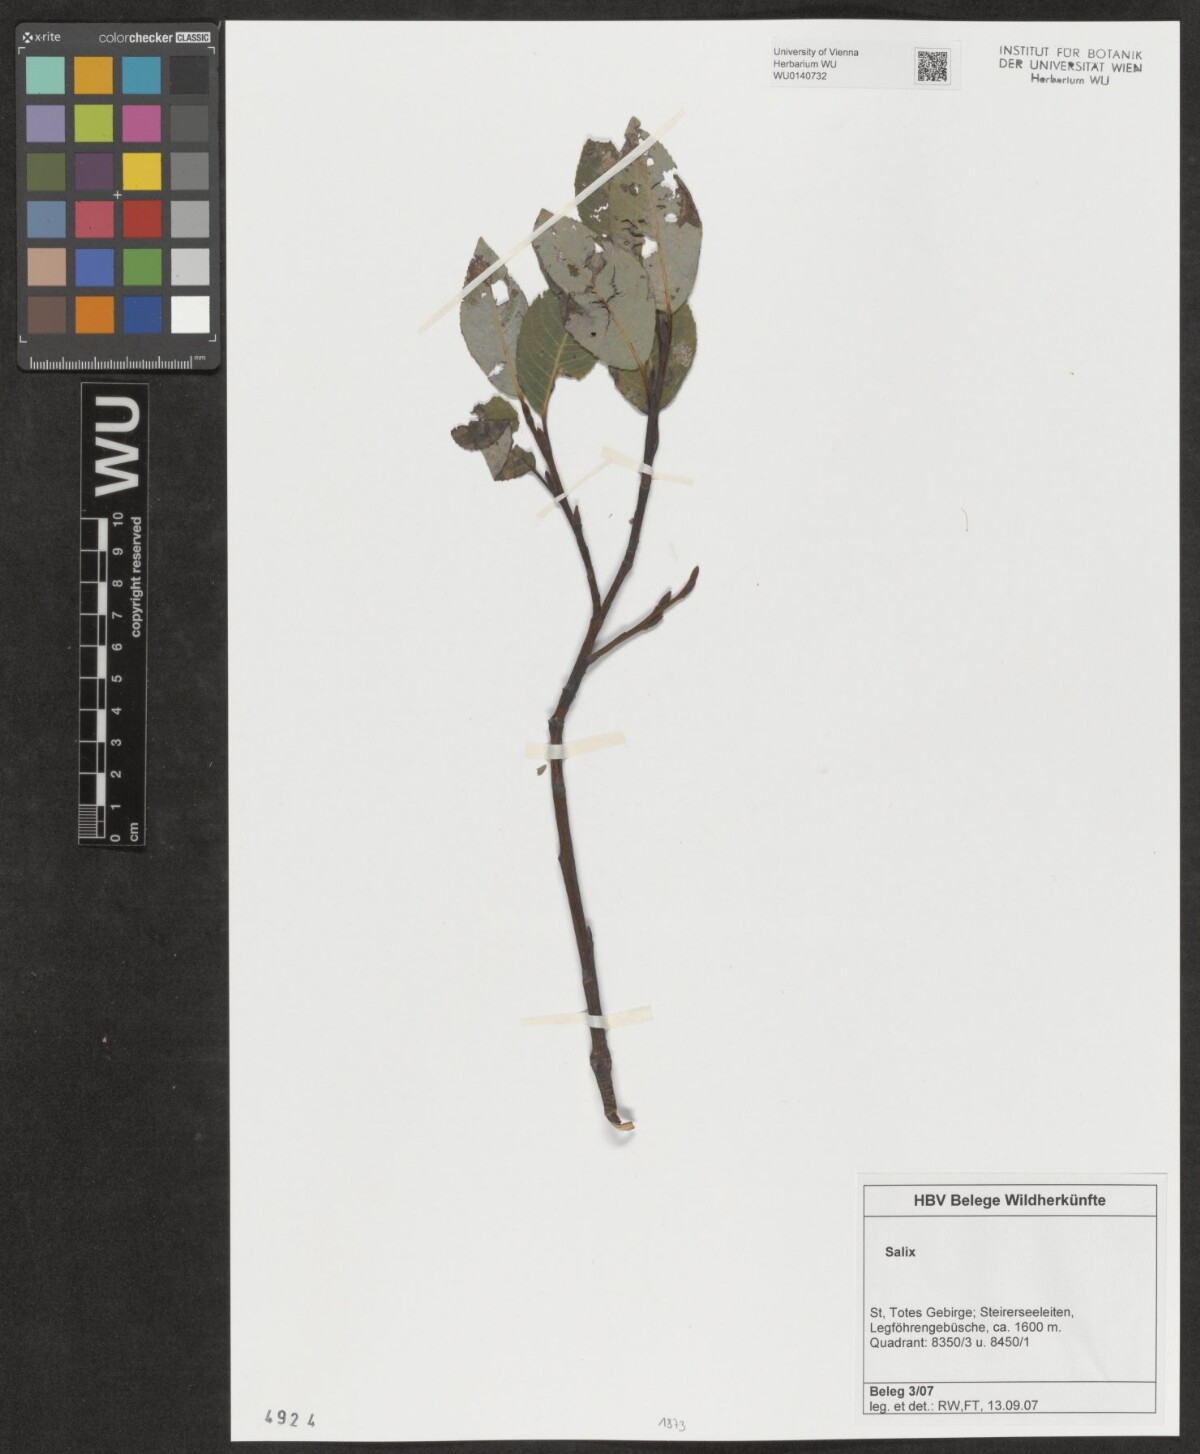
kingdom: Plantae
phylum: Tracheophyta
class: Magnoliopsida
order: Malpighiales
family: Salicaceae
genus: Salix
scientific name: Salix
